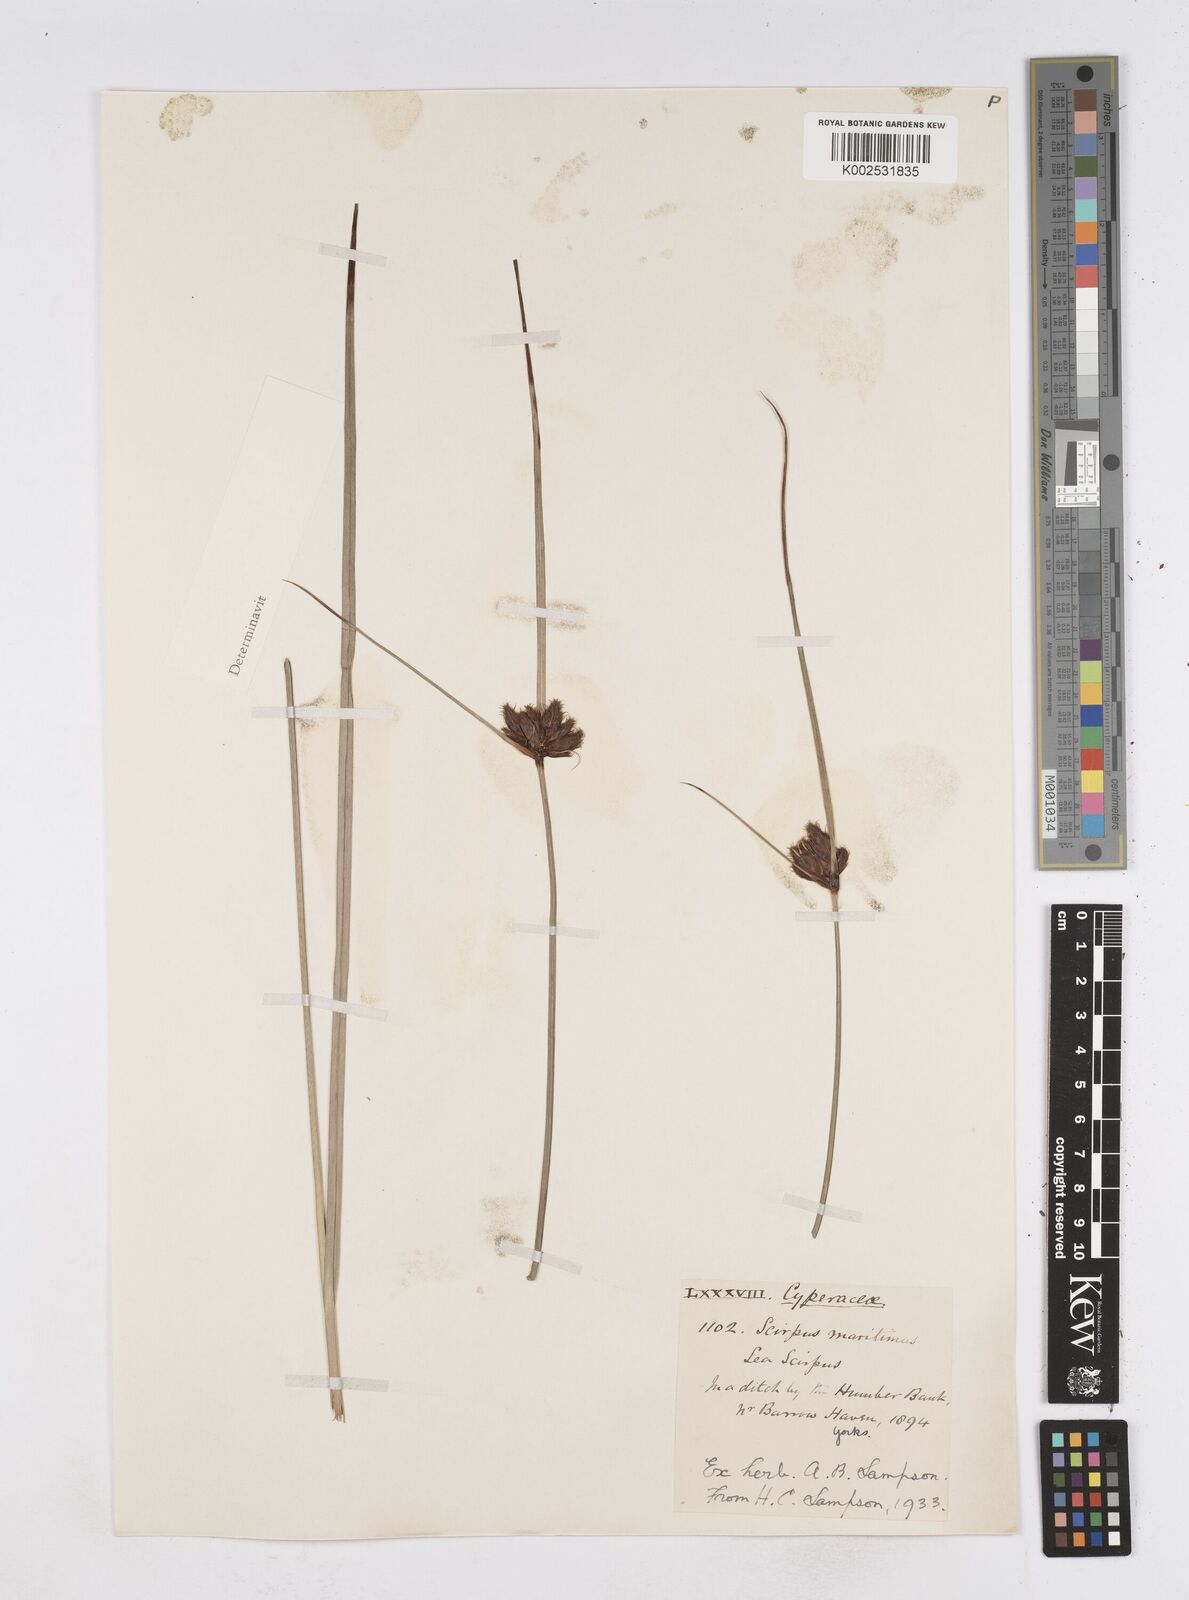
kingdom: Plantae
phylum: Tracheophyta
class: Liliopsida
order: Poales
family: Cyperaceae
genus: Bolboschoenus
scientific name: Bolboschoenus maritimus
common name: Sea club-rush
